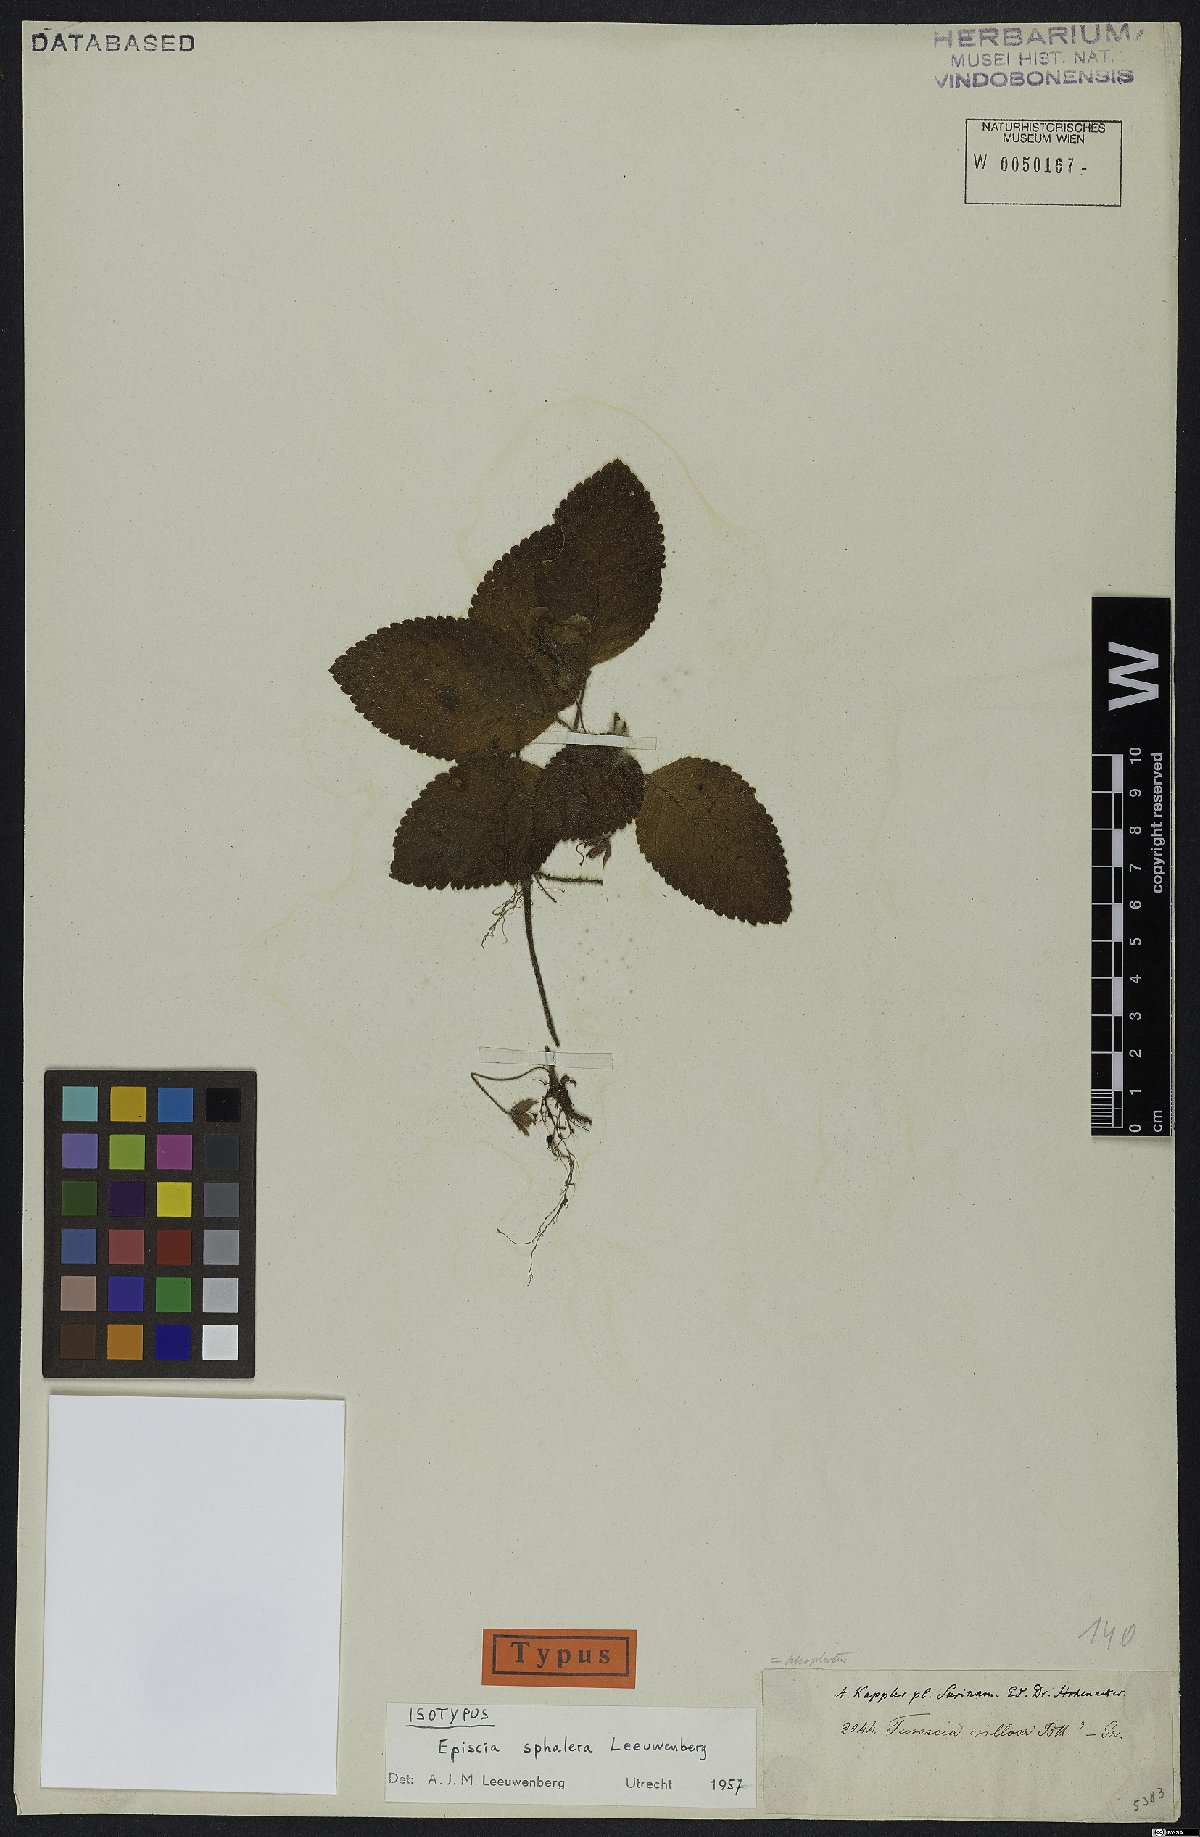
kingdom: Plantae
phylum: Tracheophyta
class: Magnoliopsida
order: Lamiales
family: Gesneriaceae
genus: Episcia
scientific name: Episcia sphalera
